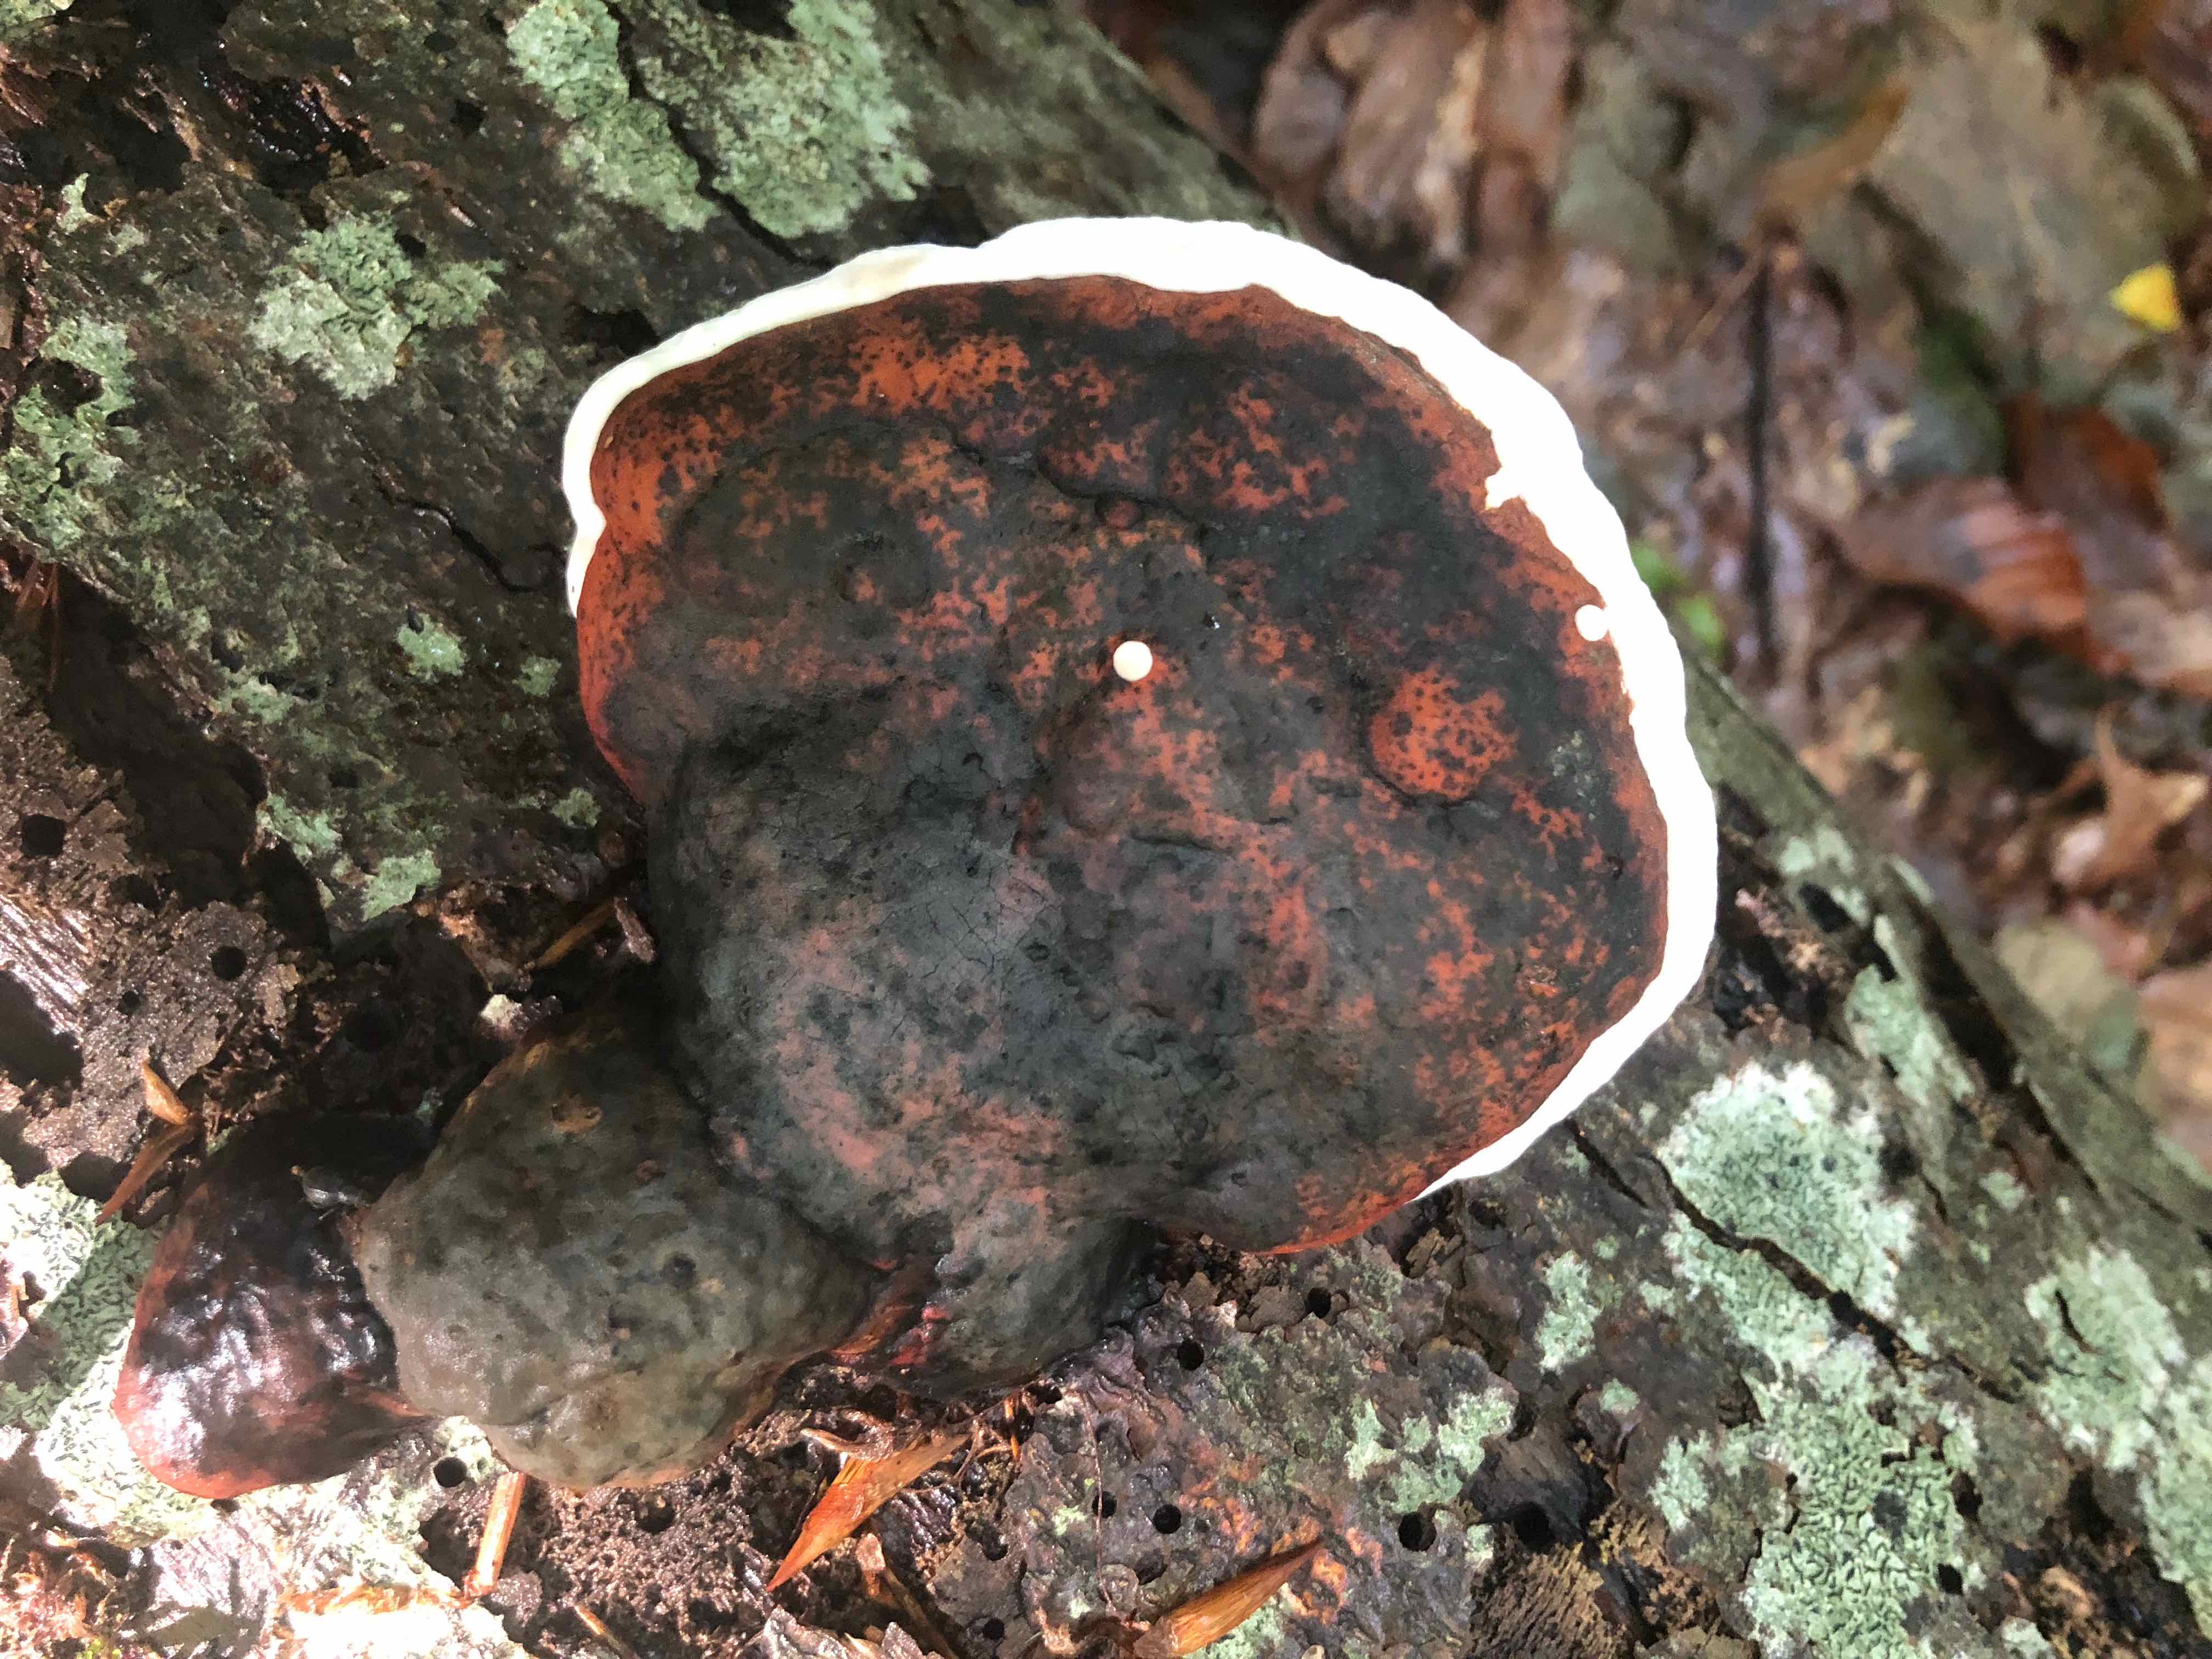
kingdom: Fungi
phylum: Basidiomycota
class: Agaricomycetes
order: Polyporales
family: Fomitopsidaceae
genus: Fomitopsis
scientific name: Fomitopsis pinicola
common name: randbæltet hovporesvamp
